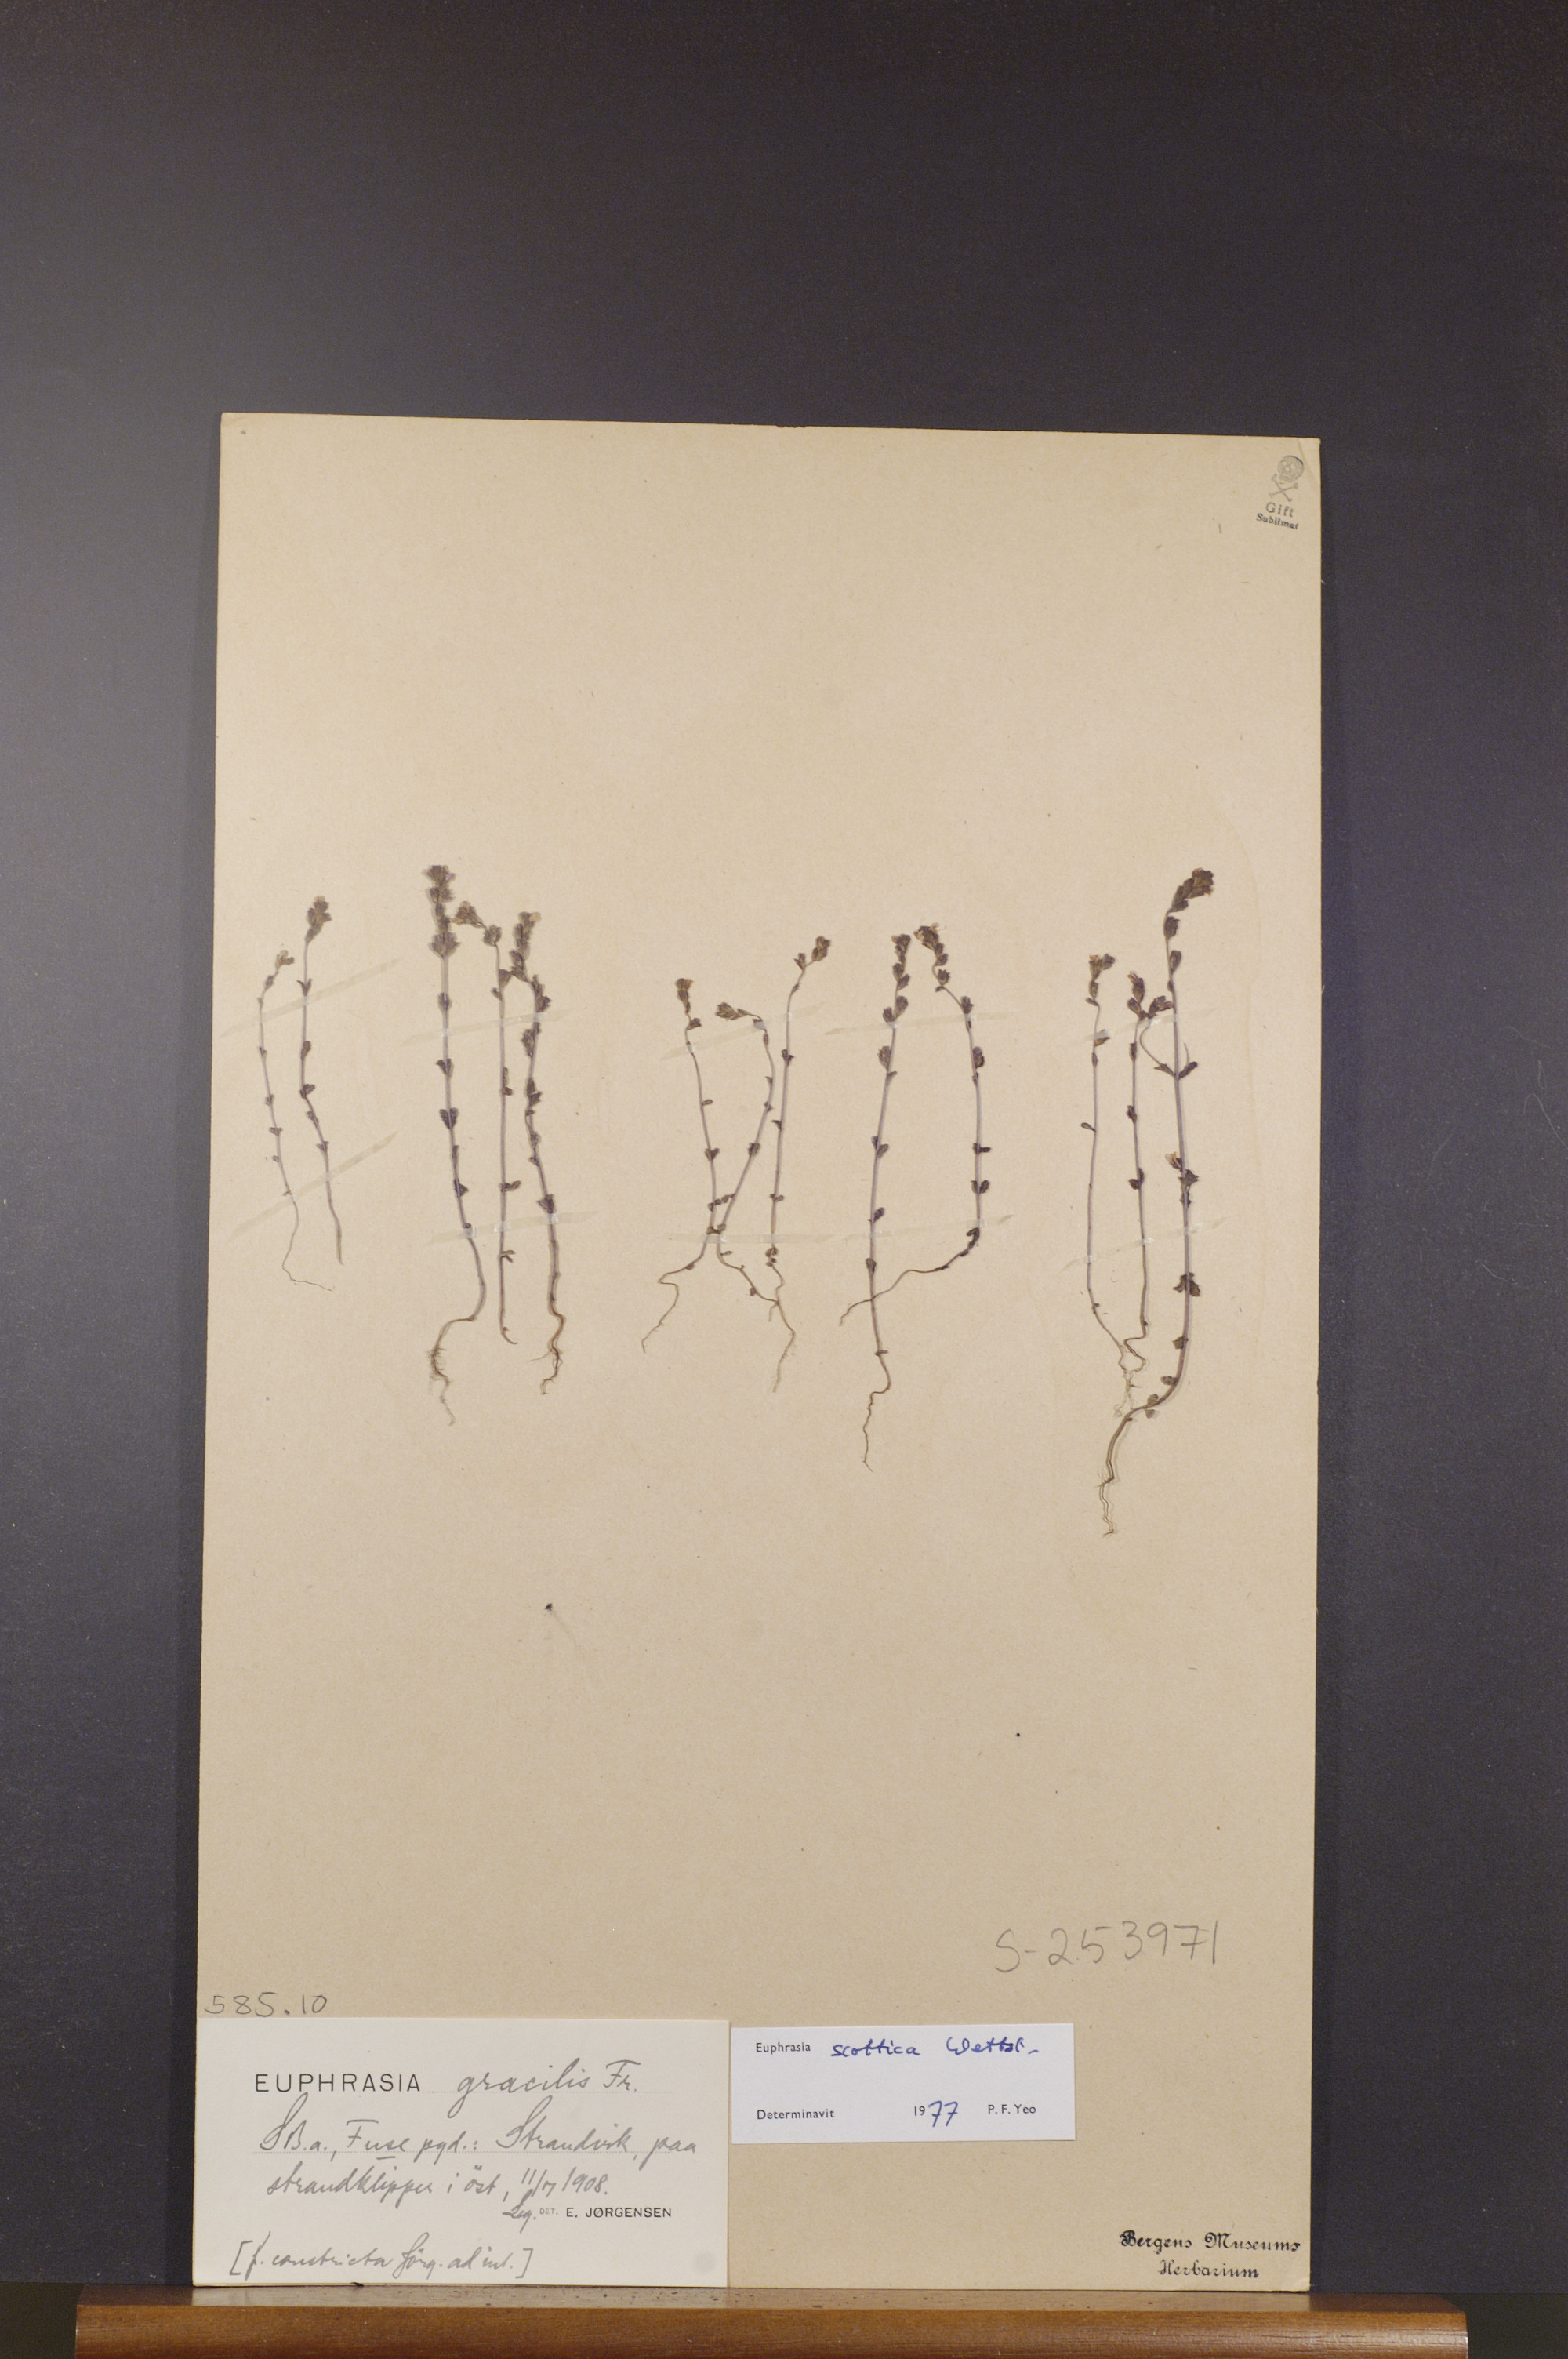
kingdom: Plantae
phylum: Tracheophyta
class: Magnoliopsida
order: Lamiales
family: Orobanchaceae
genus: Euphrasia
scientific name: Euphrasia scottica
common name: Slender scottish eyebright
